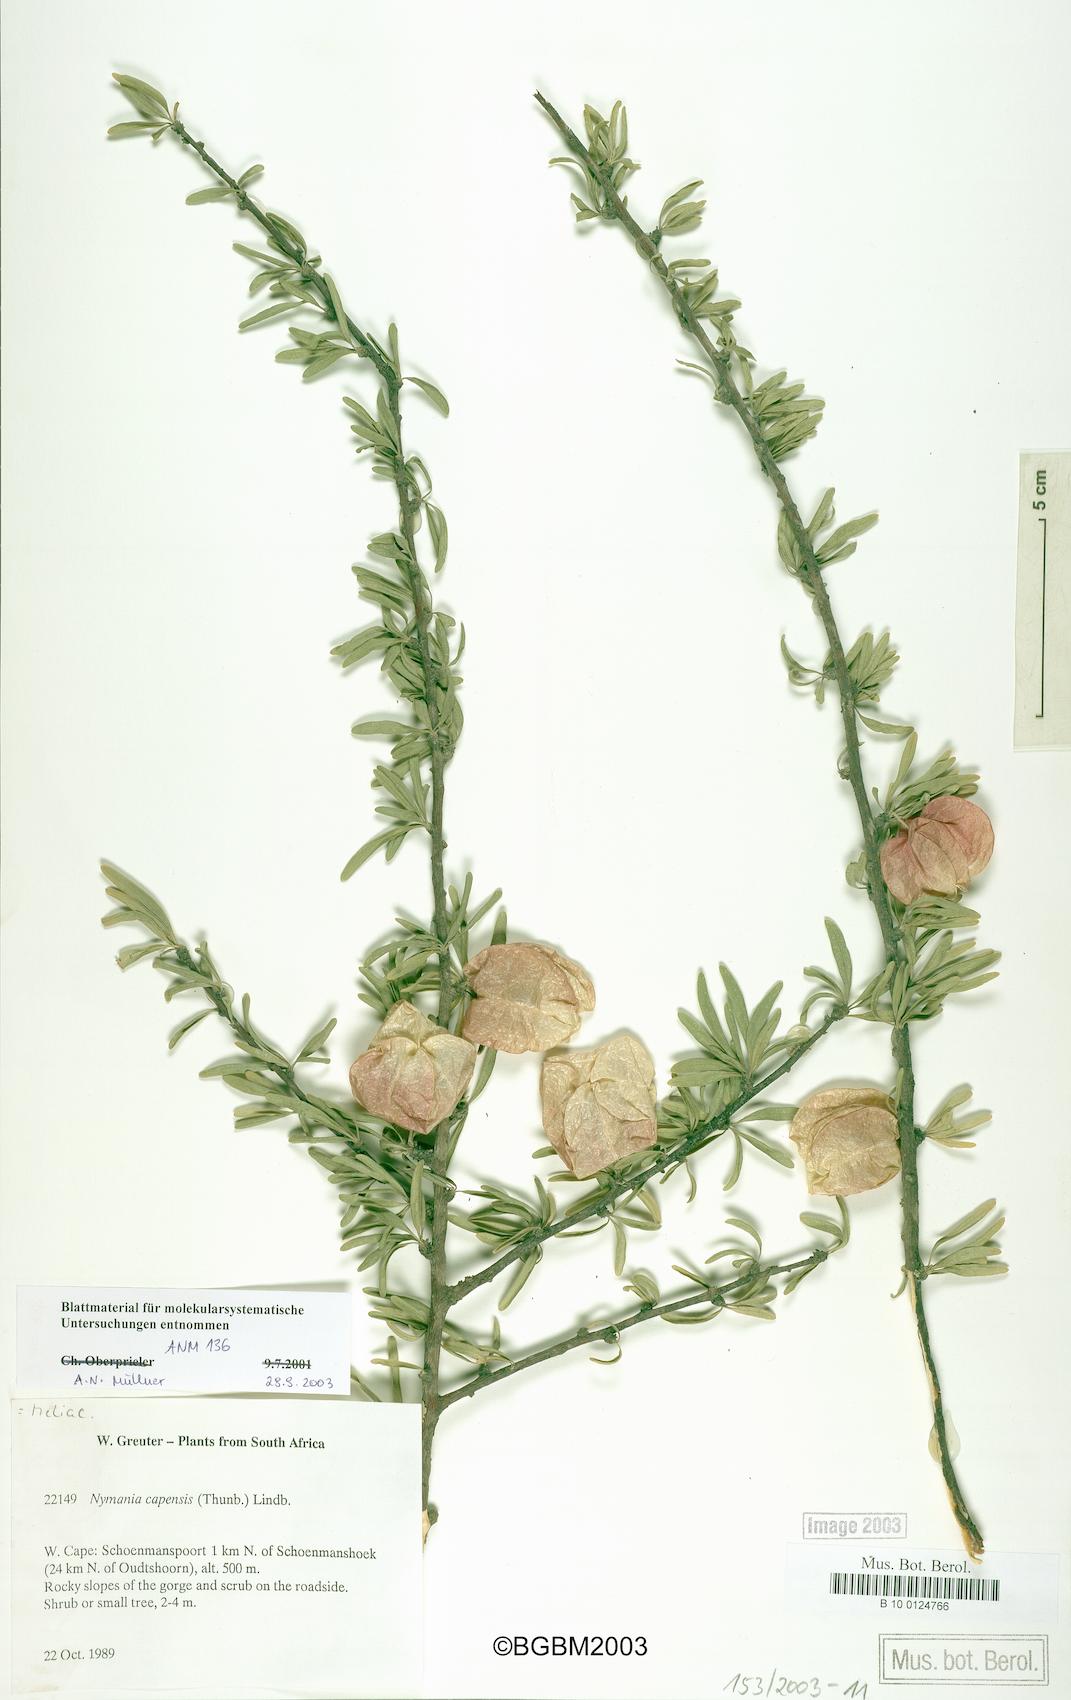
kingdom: Plantae
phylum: Tracheophyta
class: Magnoliopsida
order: Sapindales
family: Meliaceae
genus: Nymania
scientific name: Nymania capensis
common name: Chinese lantern tree
